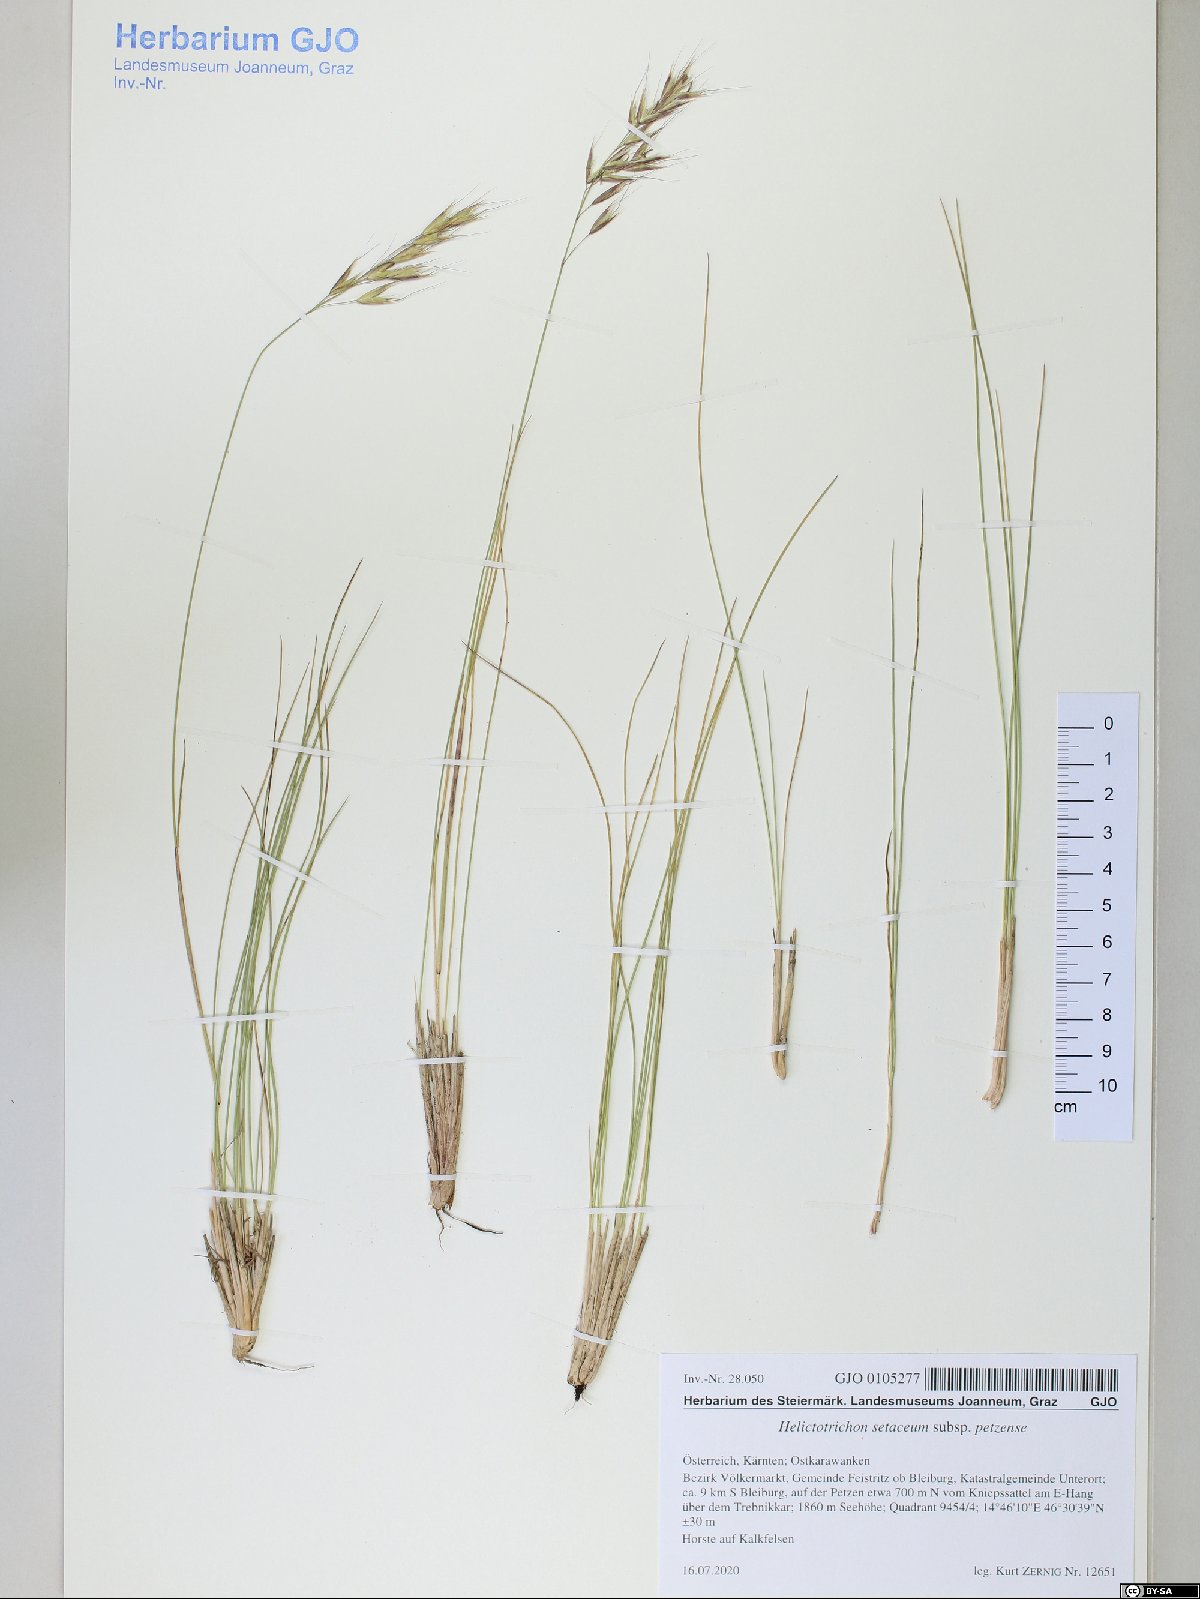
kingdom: Plantae
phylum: Tracheophyta
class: Liliopsida
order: Poales
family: Poaceae
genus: Helictotrichon
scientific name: Helictotrichon petzense
